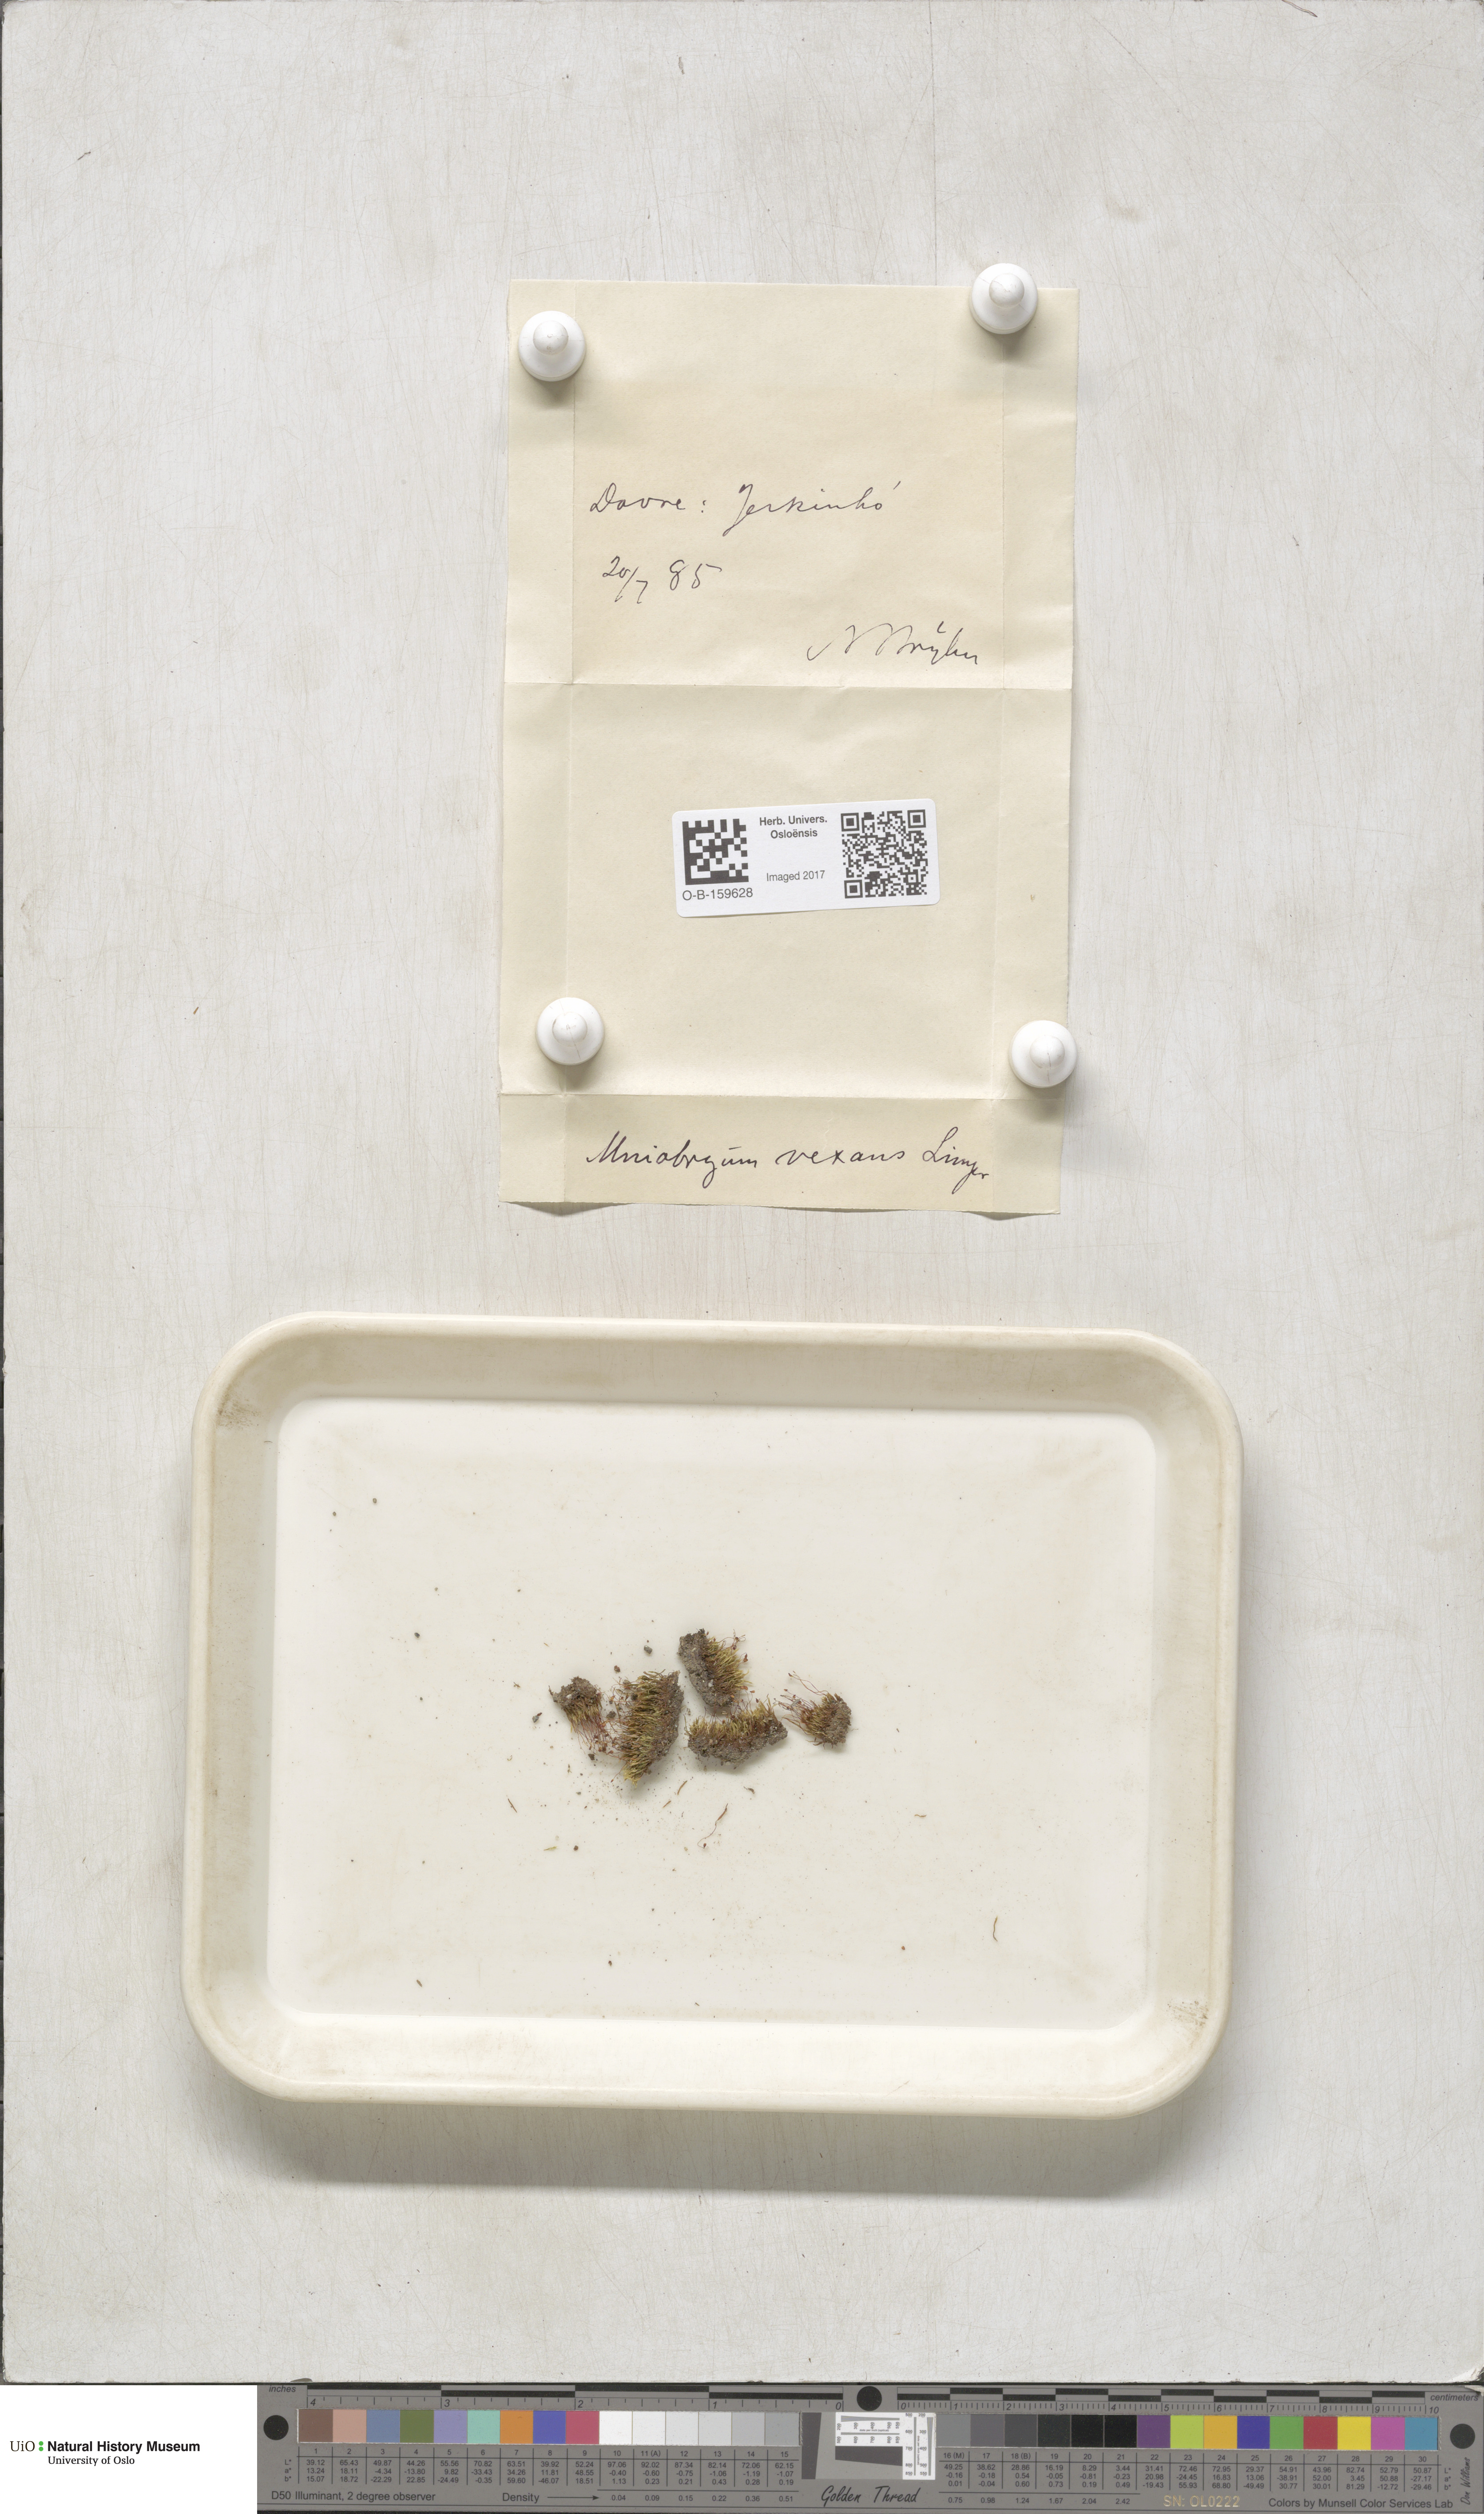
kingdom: Plantae
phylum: Bryophyta
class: Bryopsida
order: Bryales
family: Mniaceae
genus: Pohlia
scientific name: Pohlia drummondii
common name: Drummond's nodding moss
